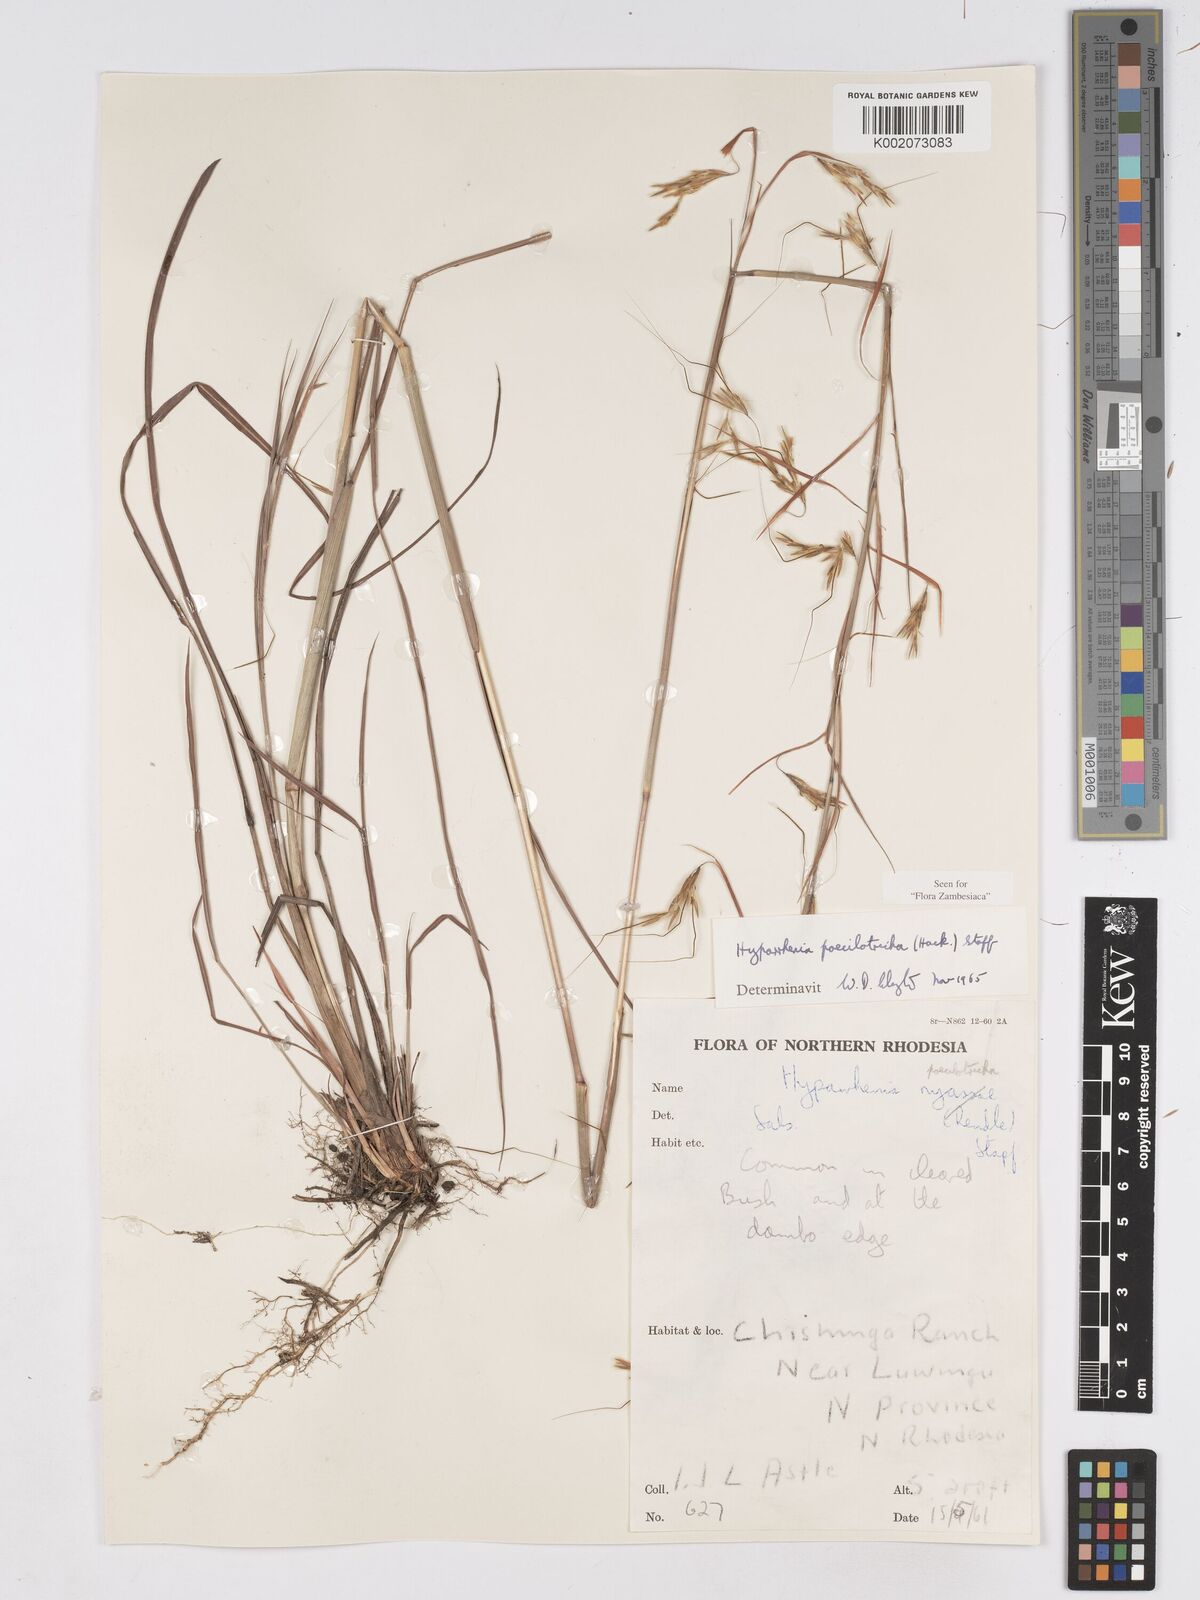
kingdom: Plantae
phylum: Tracheophyta
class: Liliopsida
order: Poales
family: Poaceae
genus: Hyparrhenia
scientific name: Hyparrhenia poecilotricha
